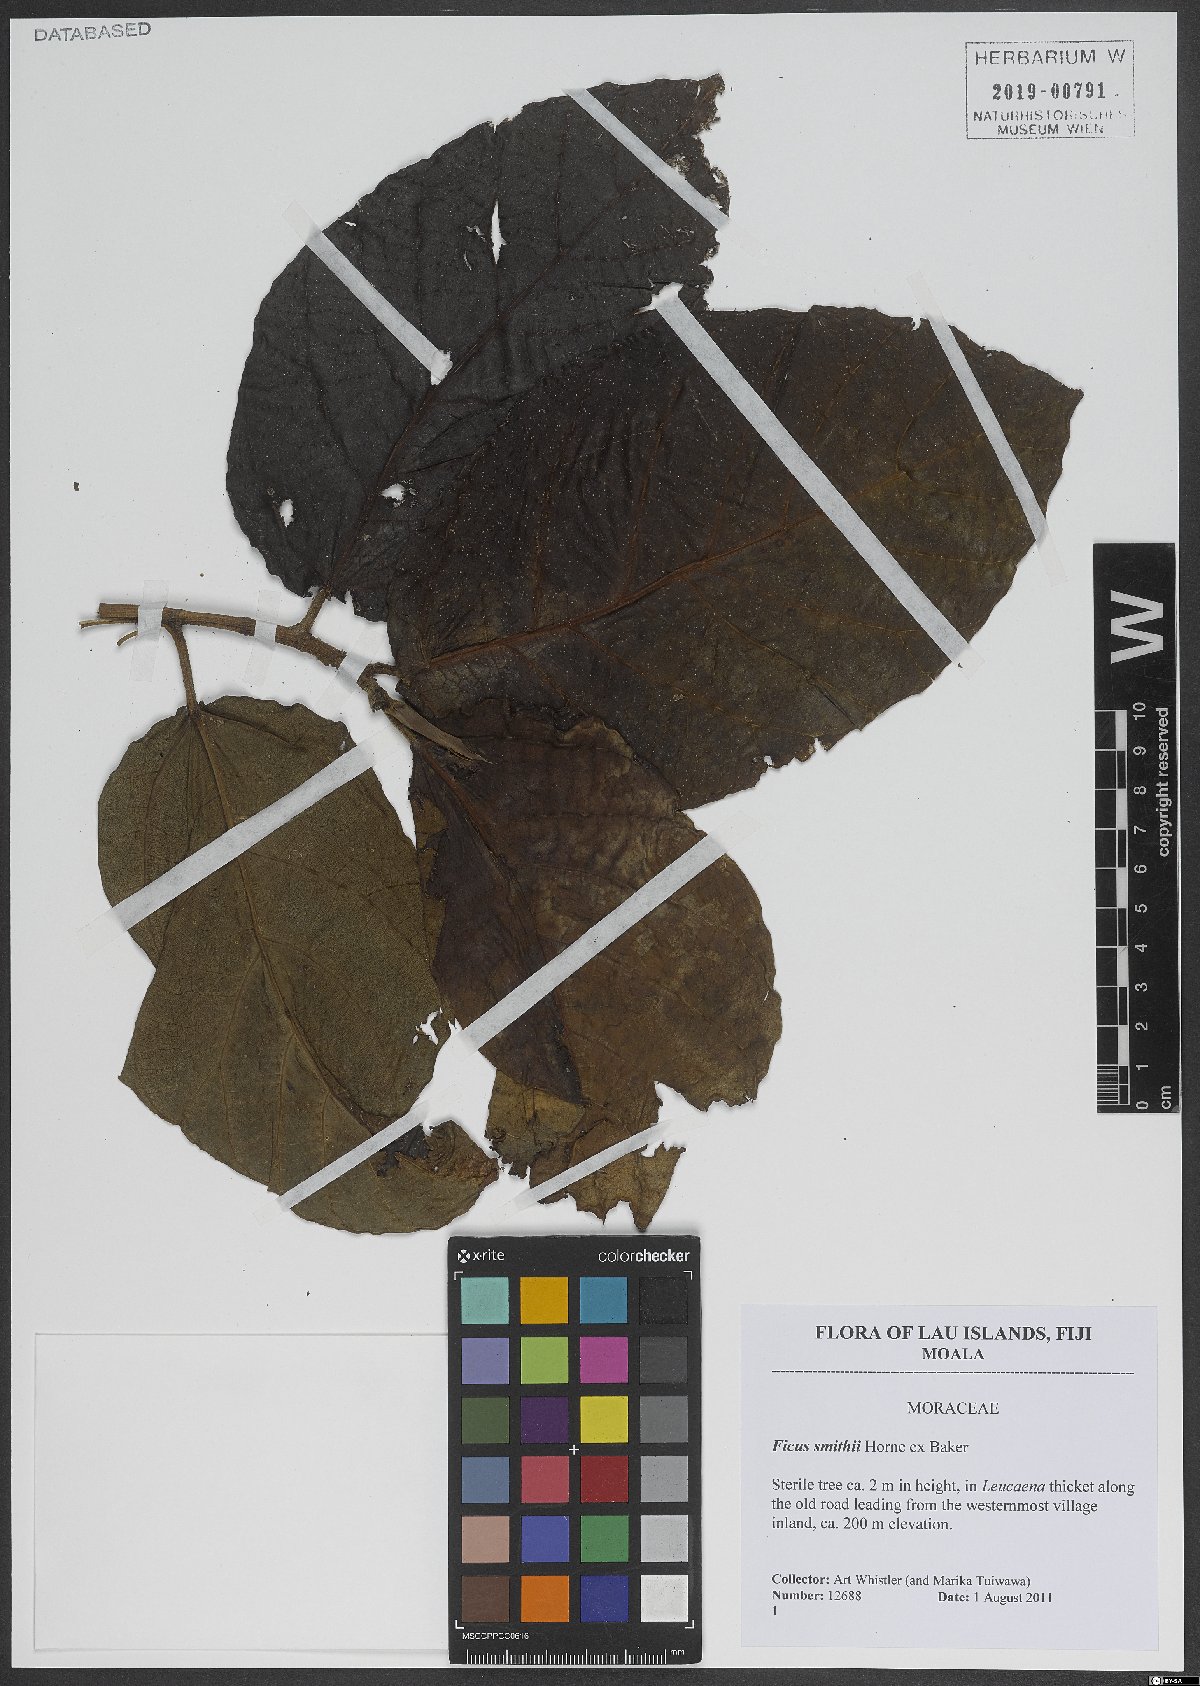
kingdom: Plantae
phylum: Tracheophyta
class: Magnoliopsida
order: Rosales
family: Moraceae
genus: Ficus
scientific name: Ficus smithii
